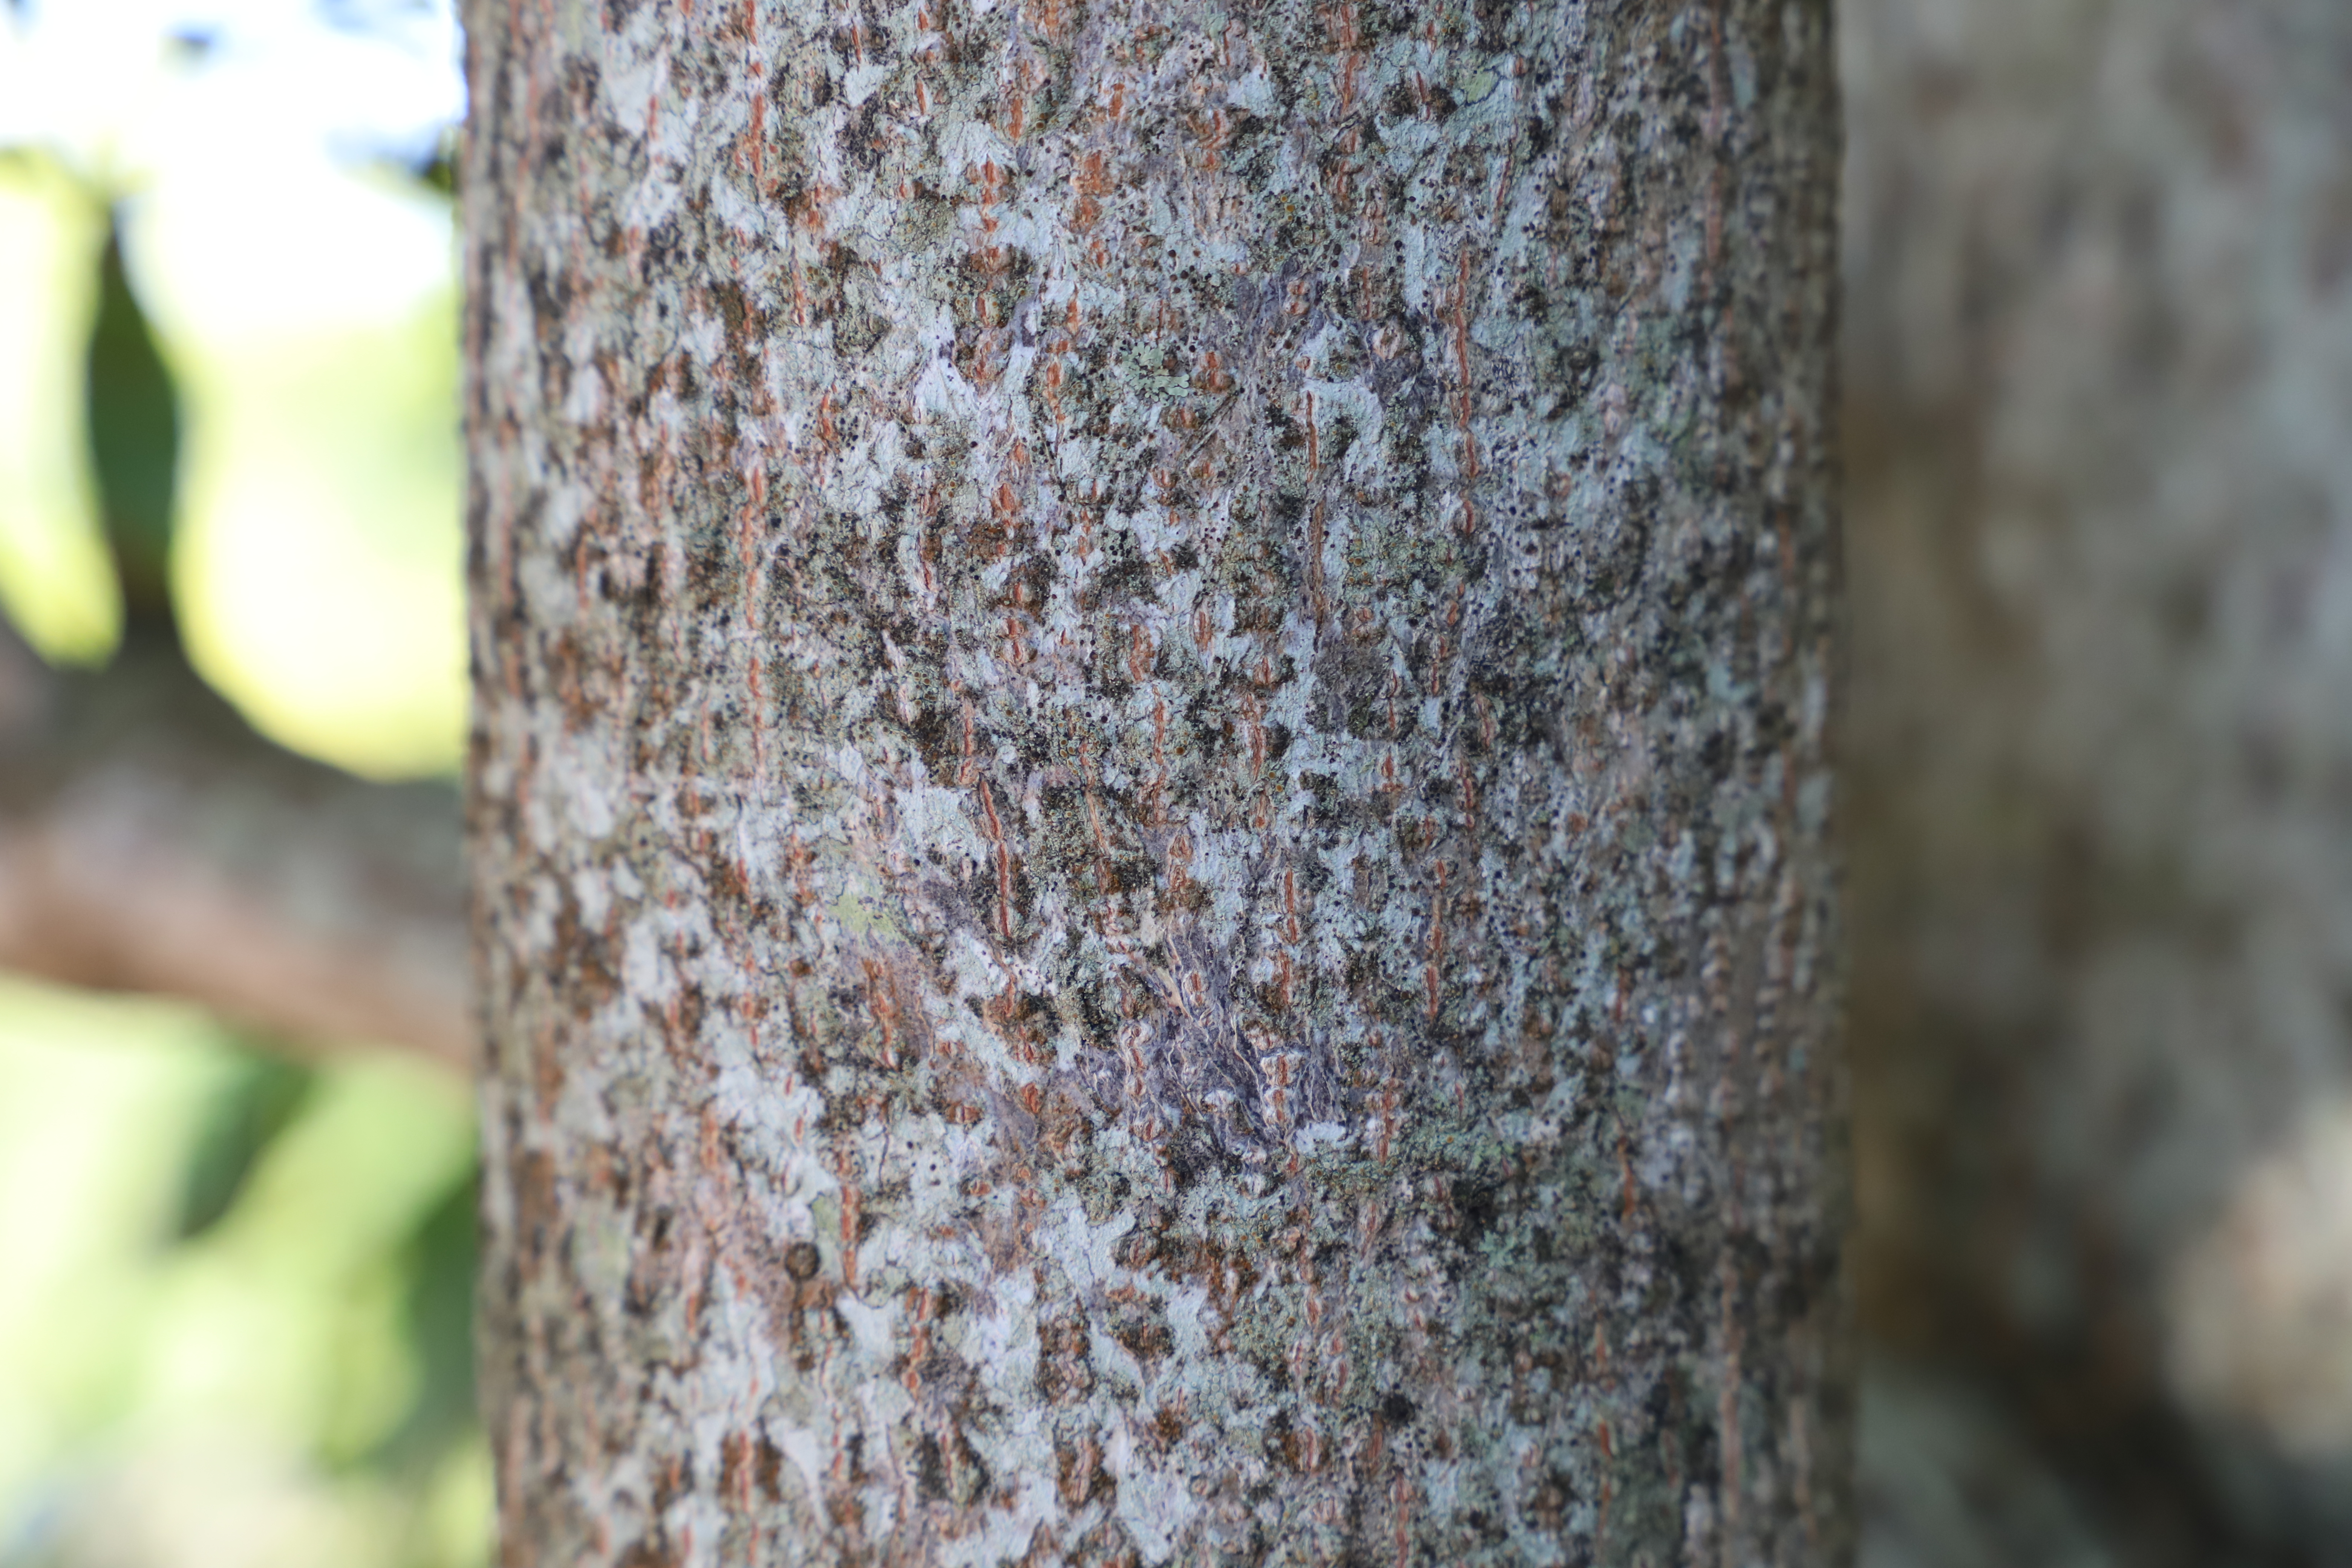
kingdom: Plantae
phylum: Tracheophyta
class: Magnoliopsida
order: Myrtales
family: Combretaceae
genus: Terminalia
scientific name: Terminalia bentzoe
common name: Benjoin
